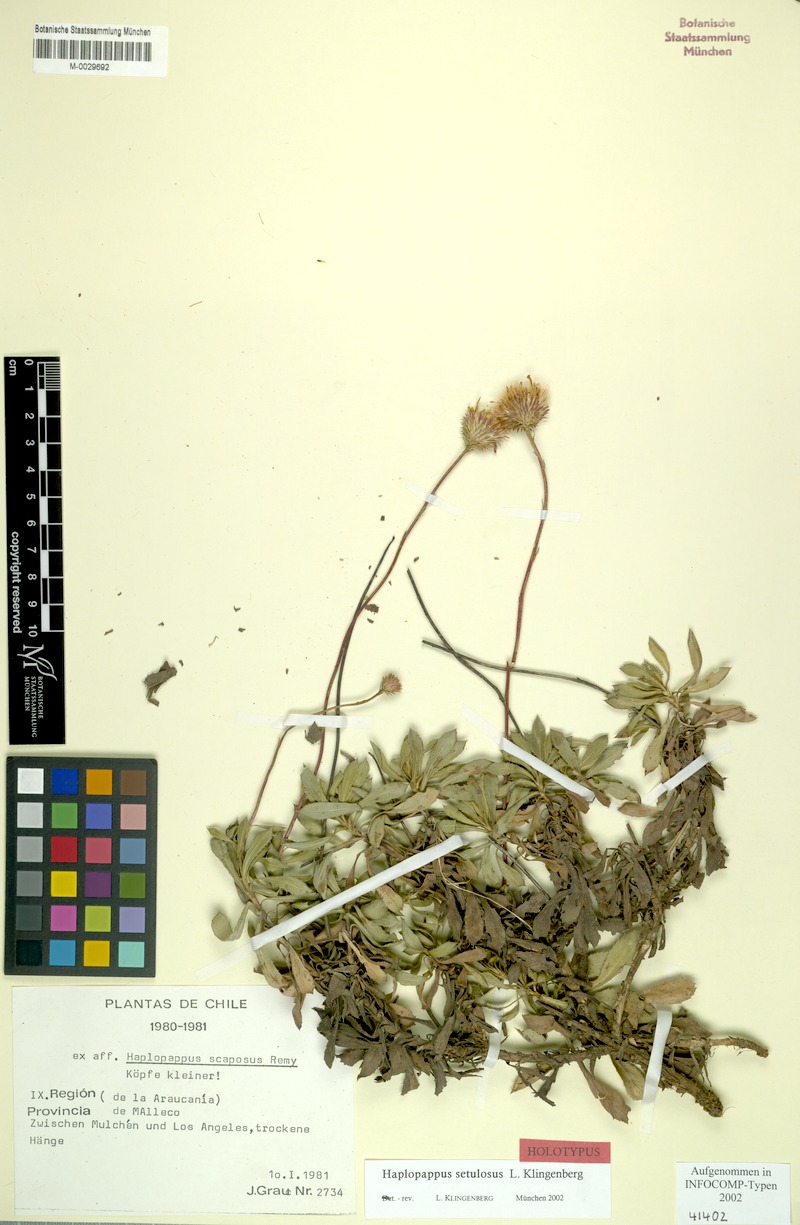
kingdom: Plantae
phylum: Tracheophyta
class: Magnoliopsida
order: Asterales
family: Asteraceae
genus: Haplopappus
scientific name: Haplopappus setulosus
